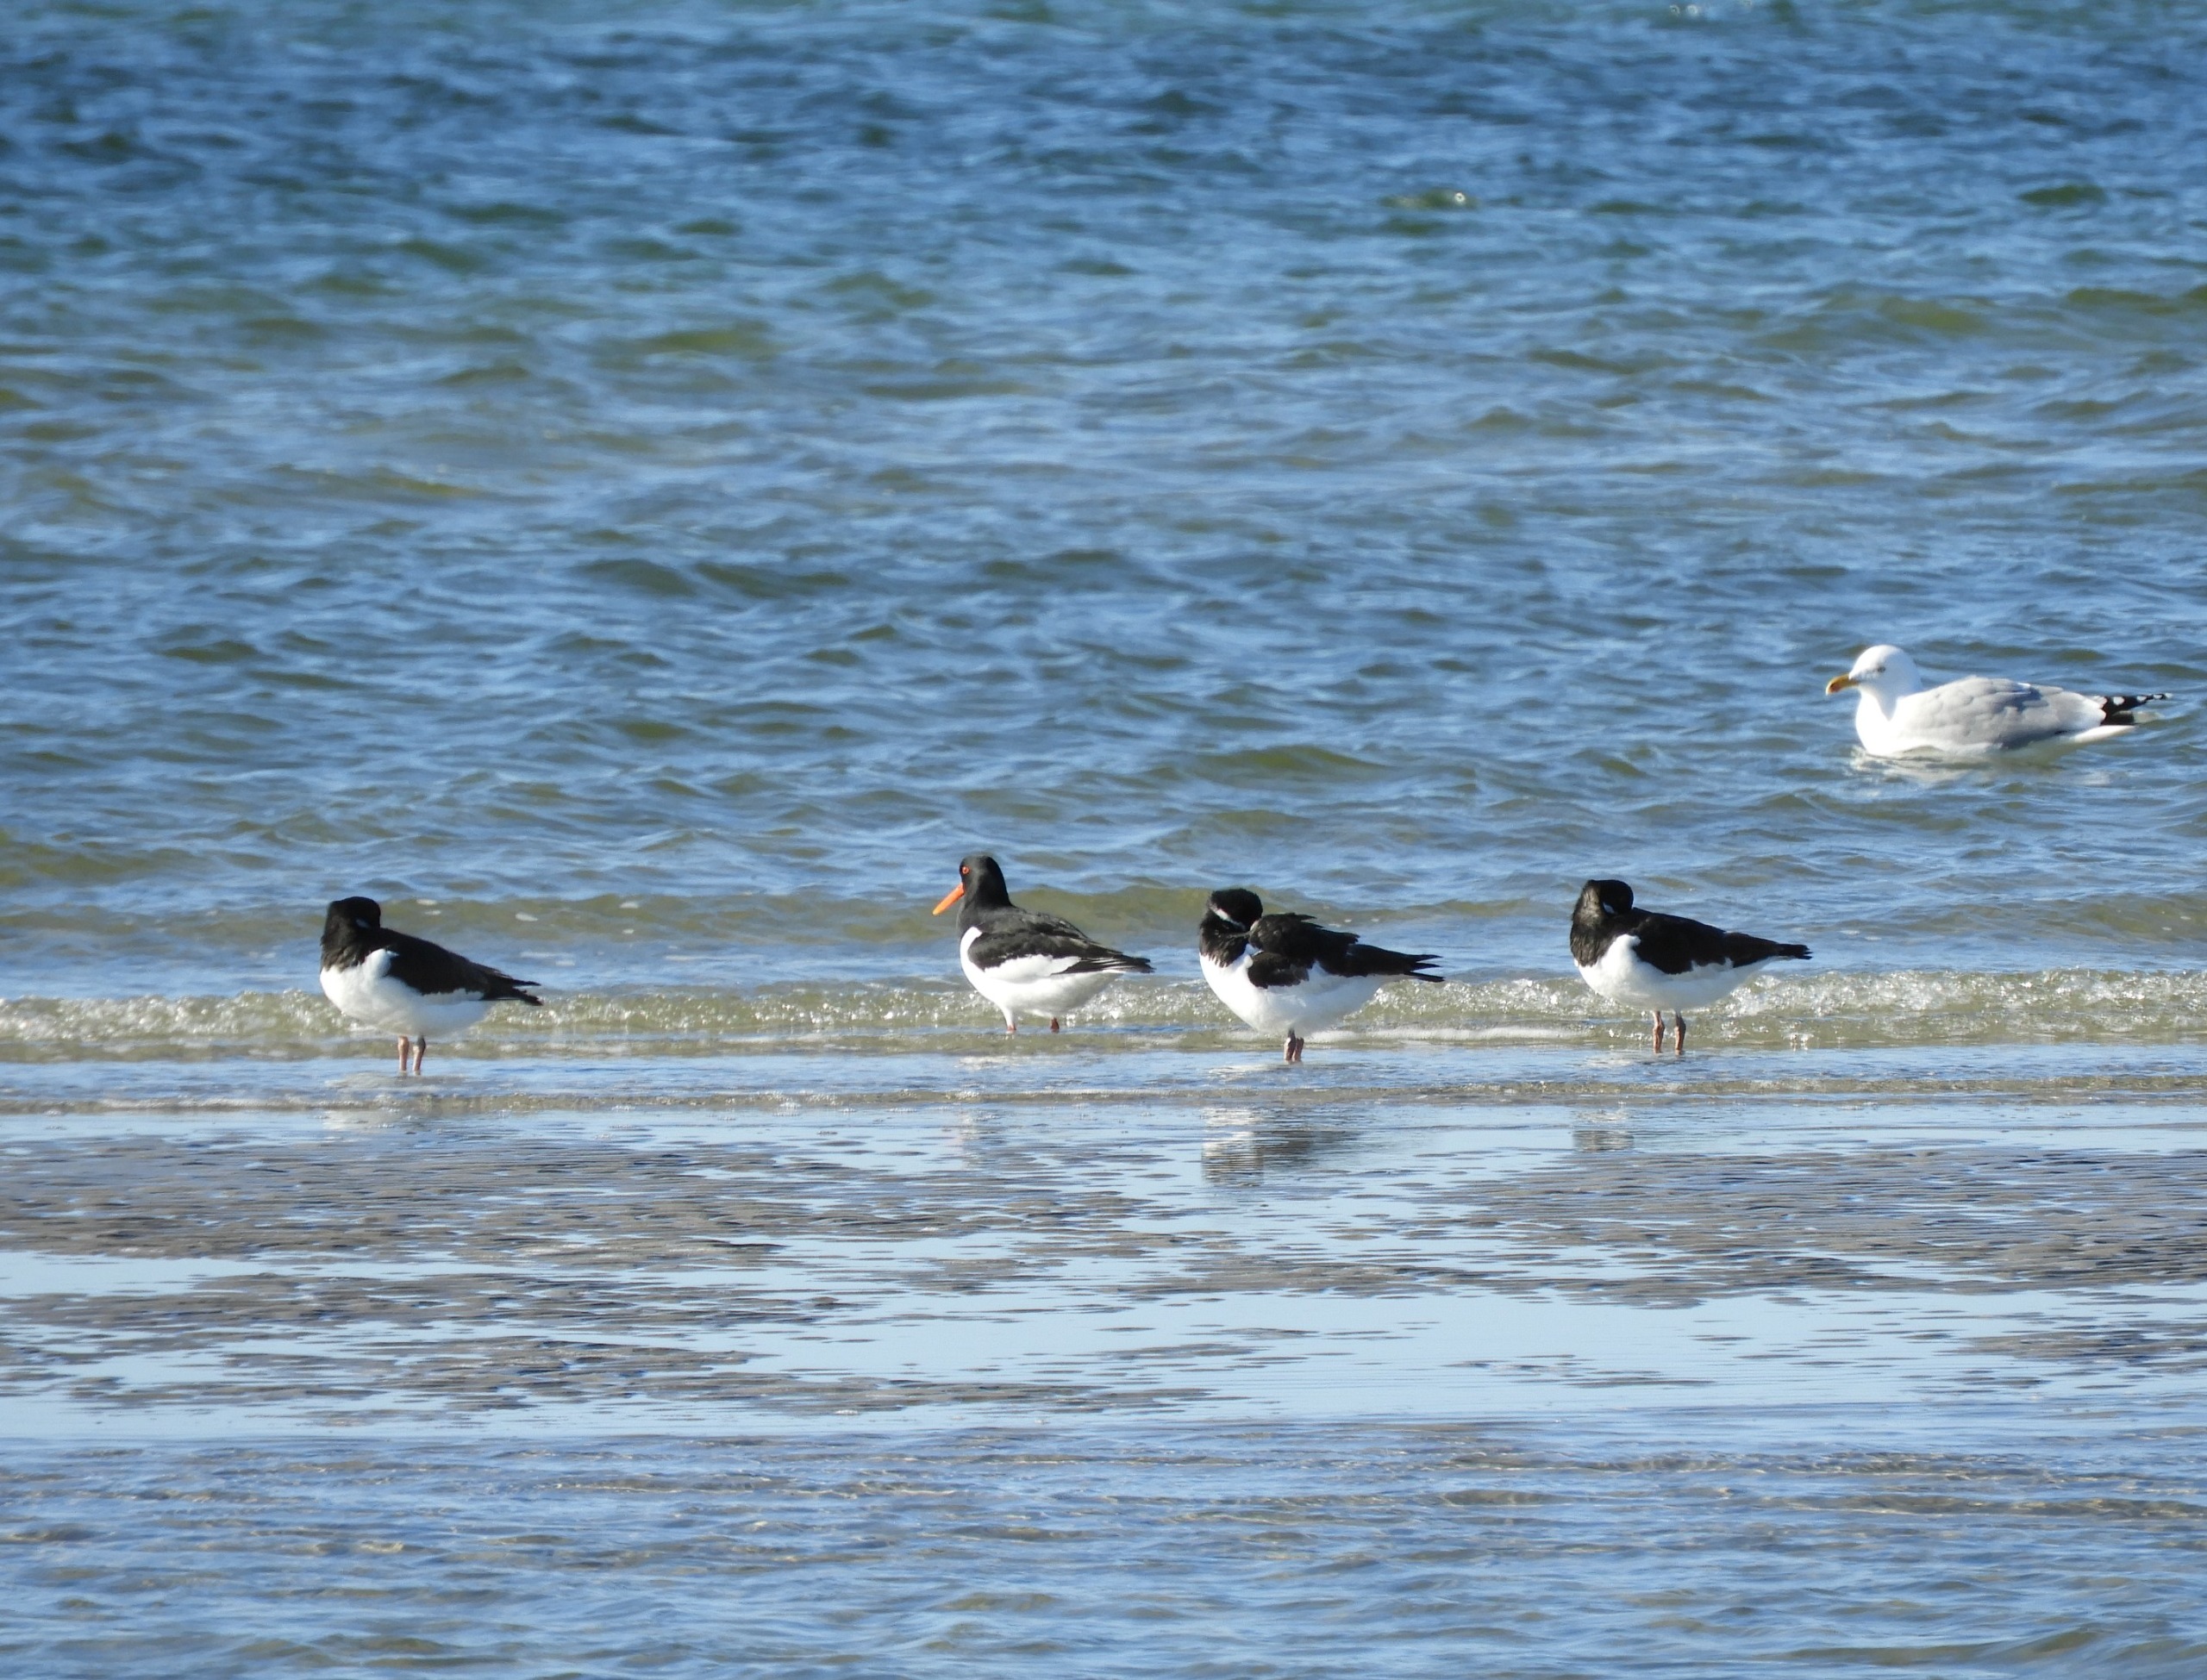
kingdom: Animalia
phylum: Chordata
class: Aves
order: Charadriiformes
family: Haematopodidae
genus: Haematopus
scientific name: Haematopus ostralegus
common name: Strandskade
